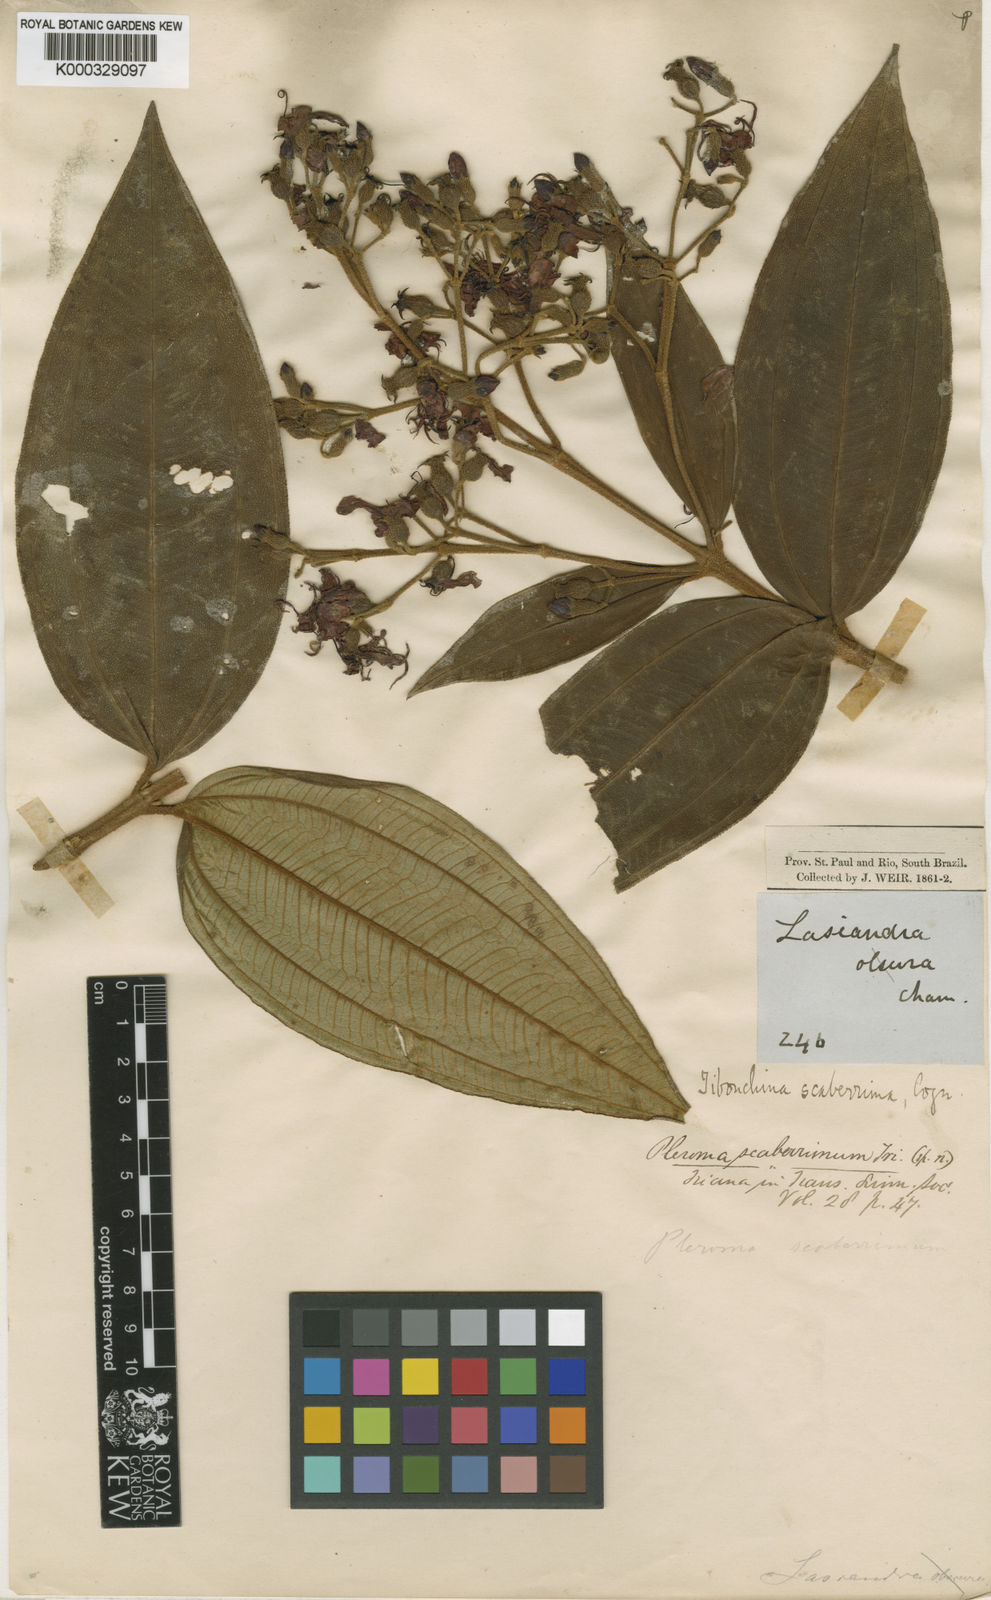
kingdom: Plantae
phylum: Tracheophyta
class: Magnoliopsida
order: Myrtales
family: Melastomataceae
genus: Pleroma
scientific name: Pleroma scaberrimum
